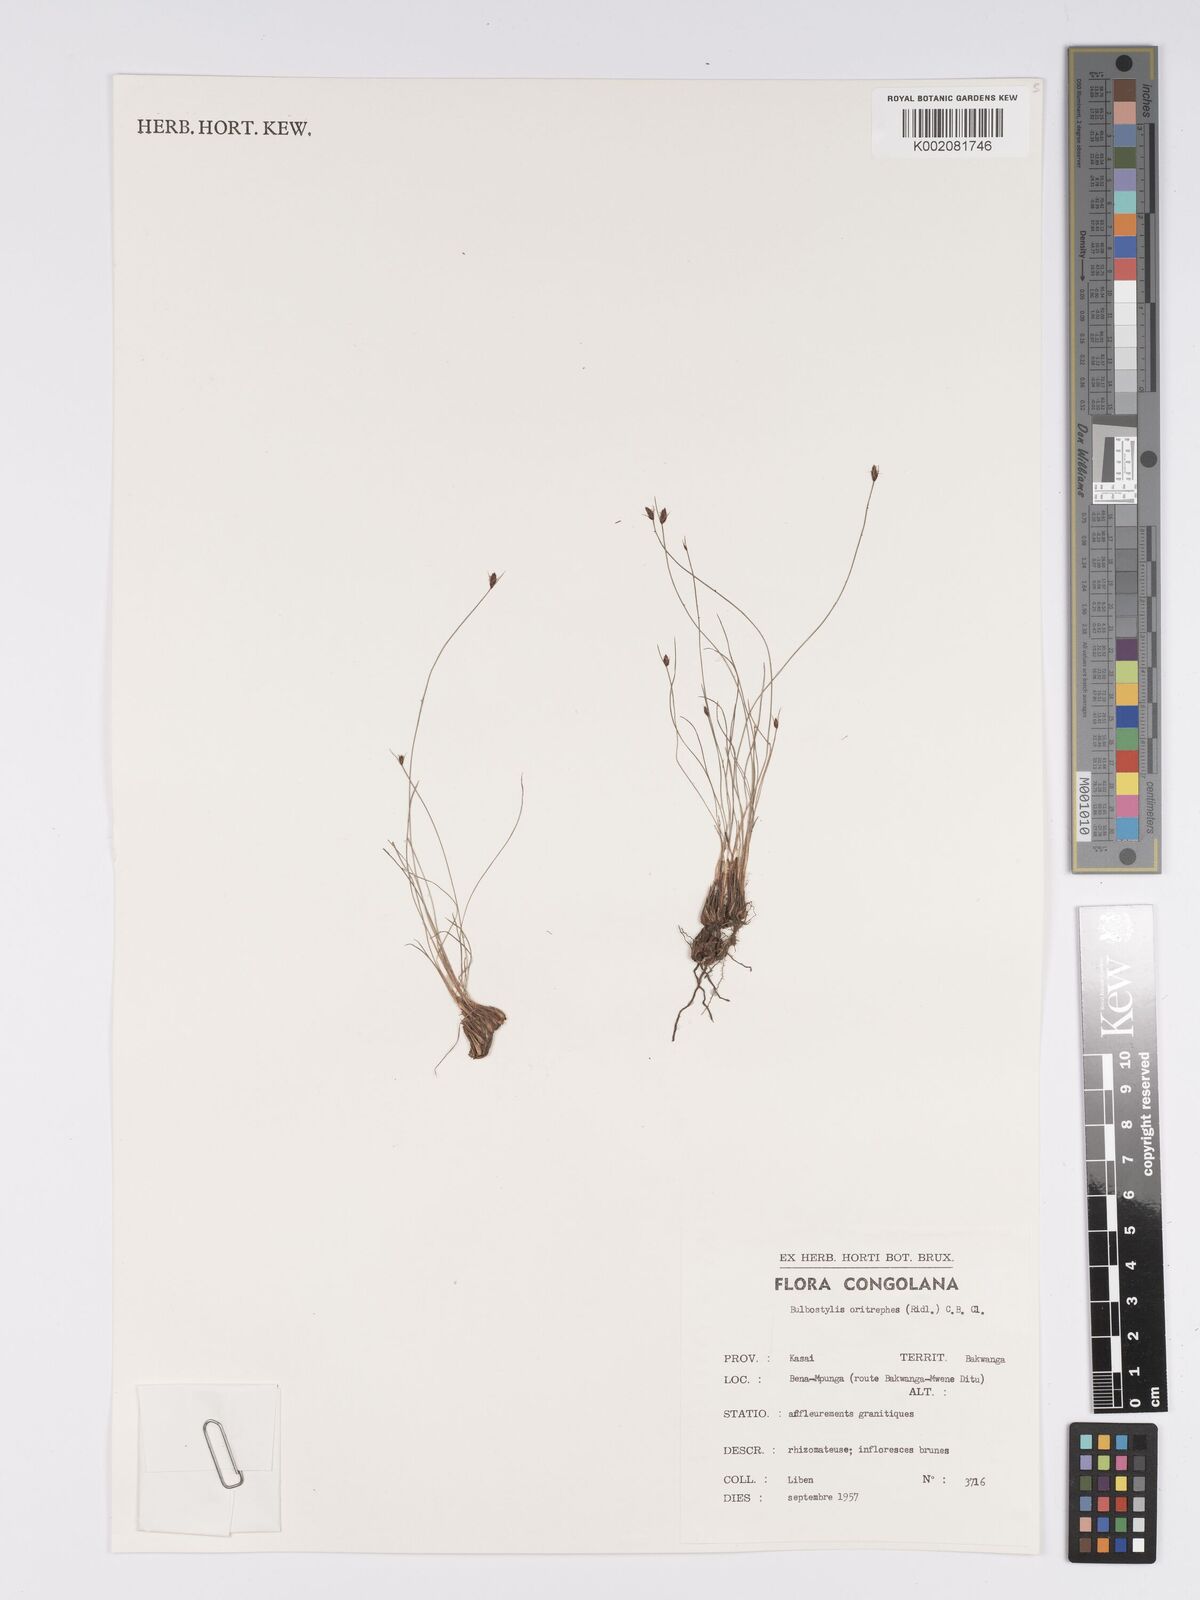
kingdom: Plantae
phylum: Tracheophyta
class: Liliopsida
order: Poales
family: Cyperaceae
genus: Bulbostylis
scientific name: Bulbostylis oritrephes
